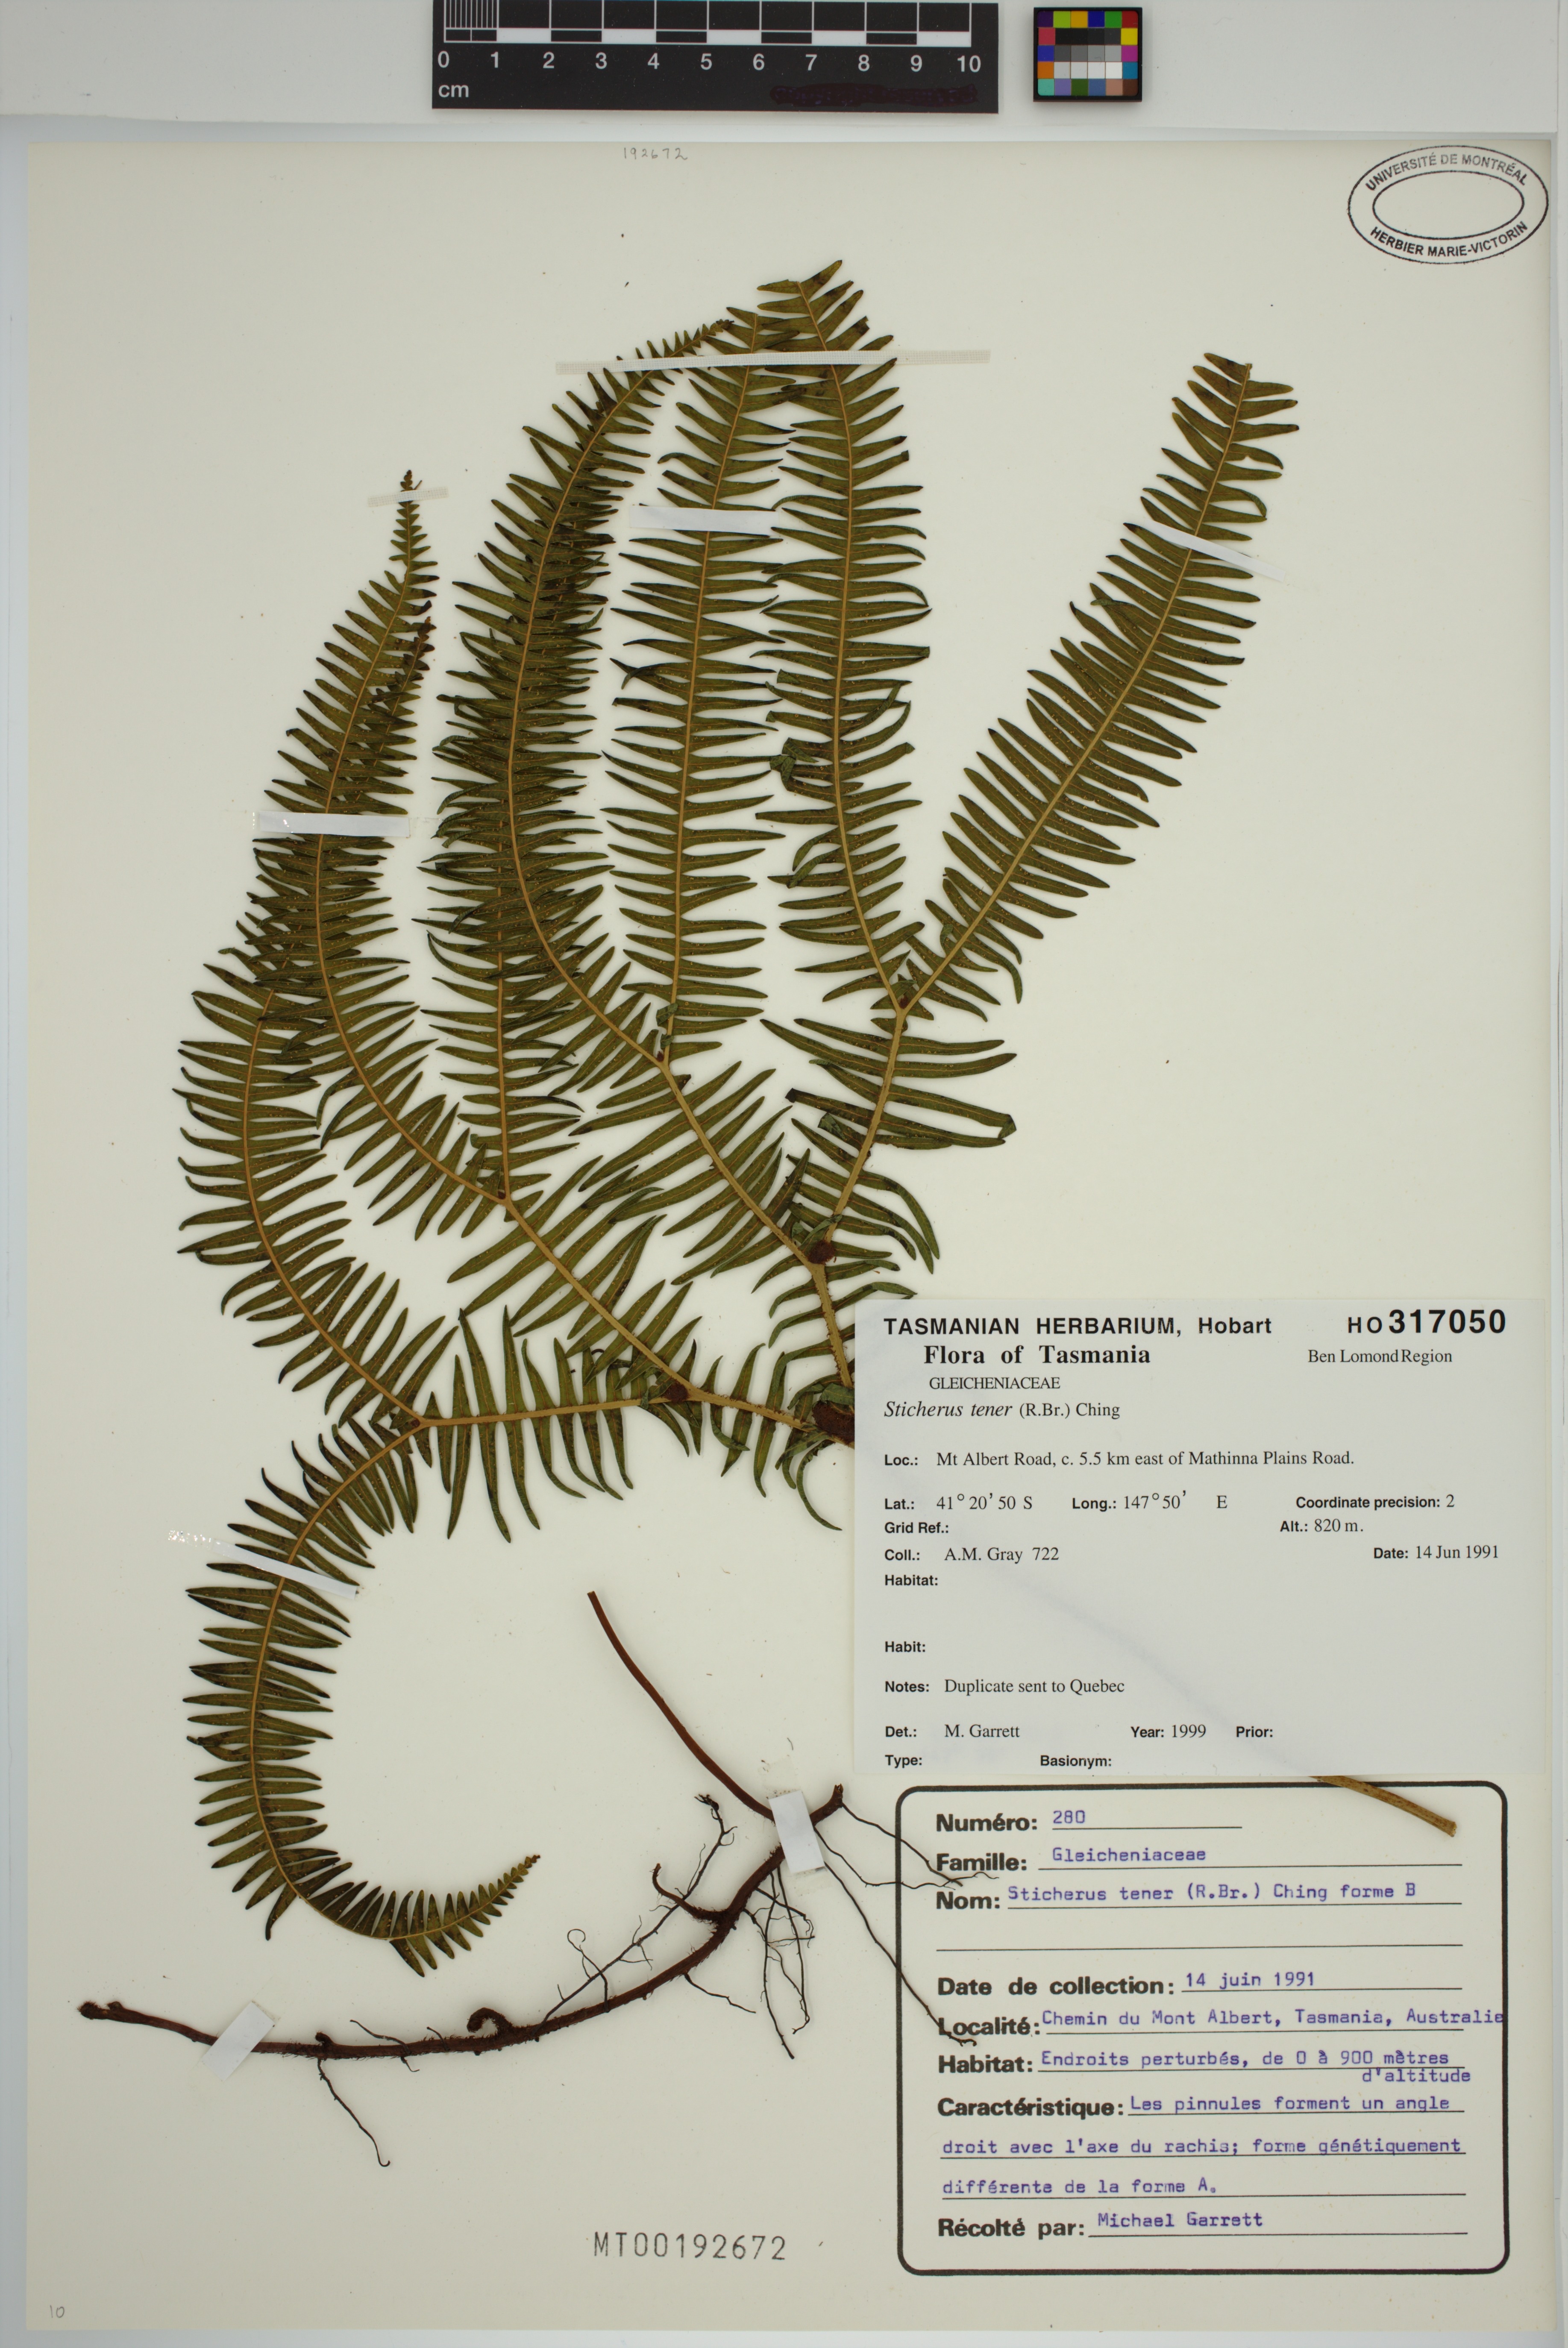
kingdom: Plantae
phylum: Tracheophyta
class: Polypodiopsida
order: Gleicheniales
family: Gleicheniaceae
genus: Sticherus
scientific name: Sticherus tener
